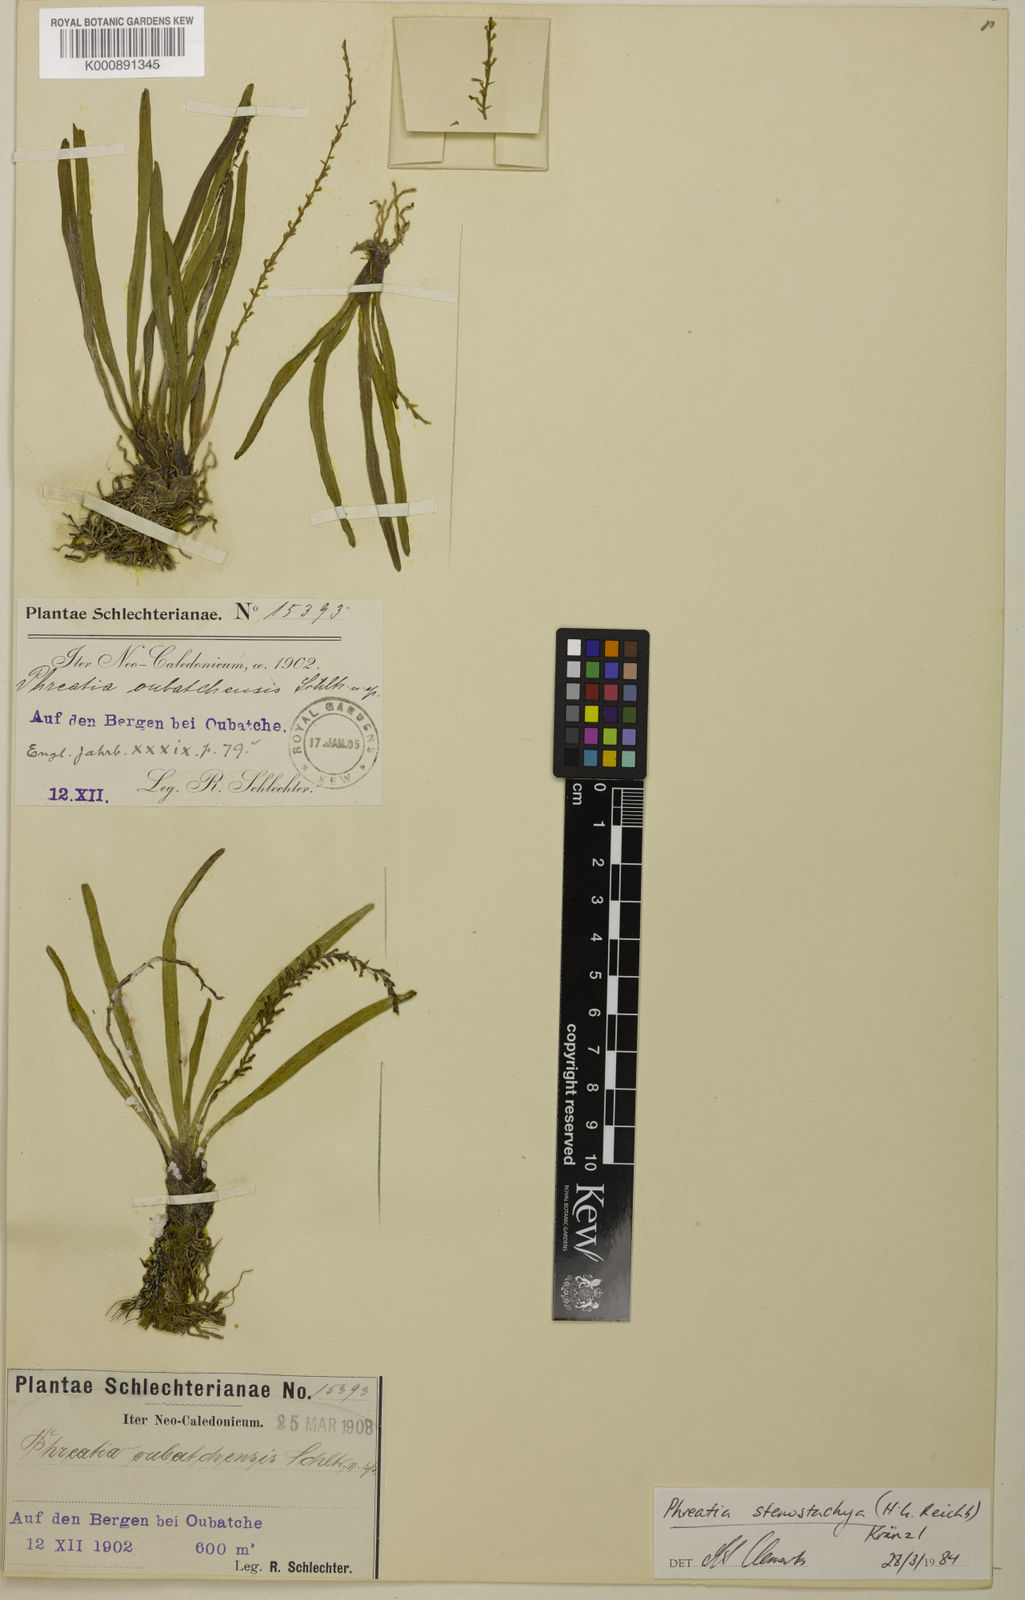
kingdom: Plantae
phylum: Tracheophyta
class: Liliopsida
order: Asparagales
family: Orchidaceae
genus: Phreatia
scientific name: Phreatia stenostachya
